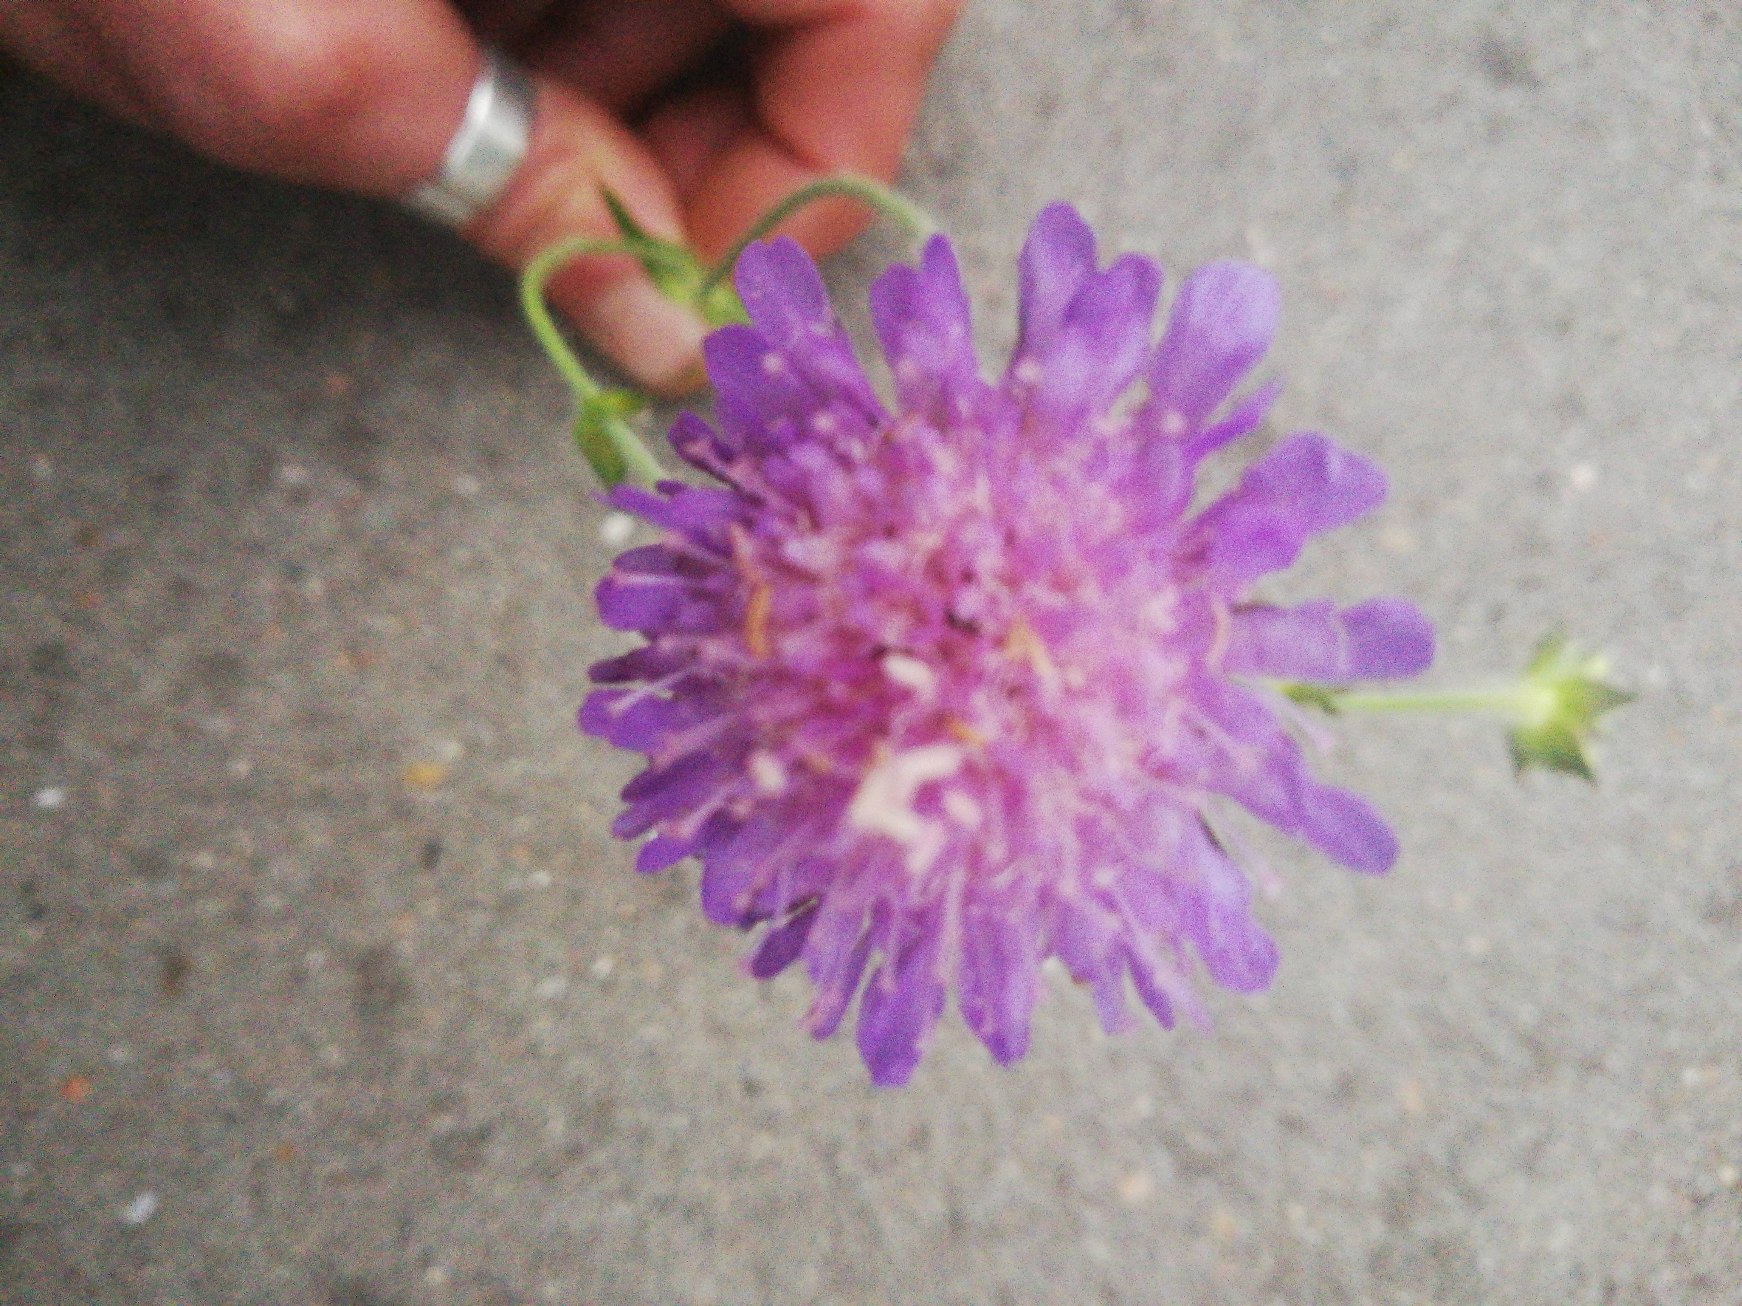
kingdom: Plantae
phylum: Tracheophyta
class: Magnoliopsida
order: Dipsacales
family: Caprifoliaceae
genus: Knautia
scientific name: Knautia arvensis
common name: Blåhat
